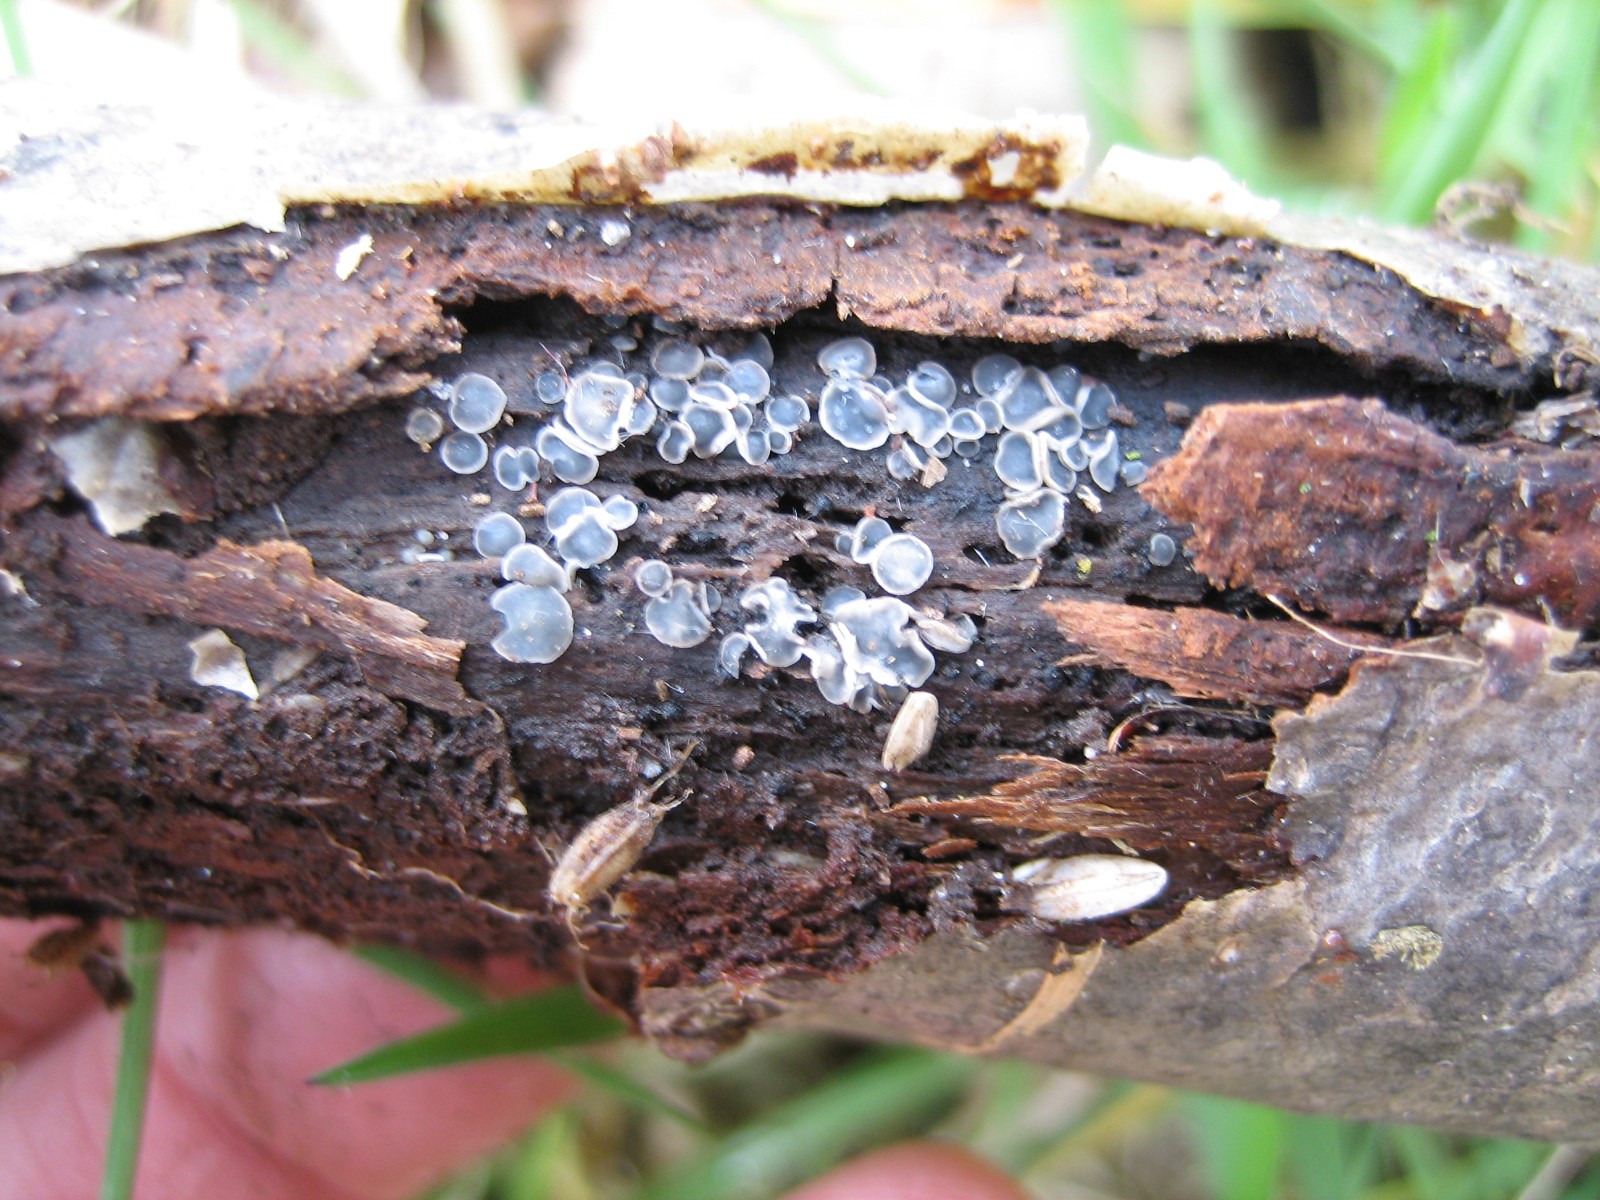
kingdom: Fungi
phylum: Ascomycota
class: Leotiomycetes
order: Helotiales
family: Mollisiaceae
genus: Mollisia
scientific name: Mollisia
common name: gråskive
